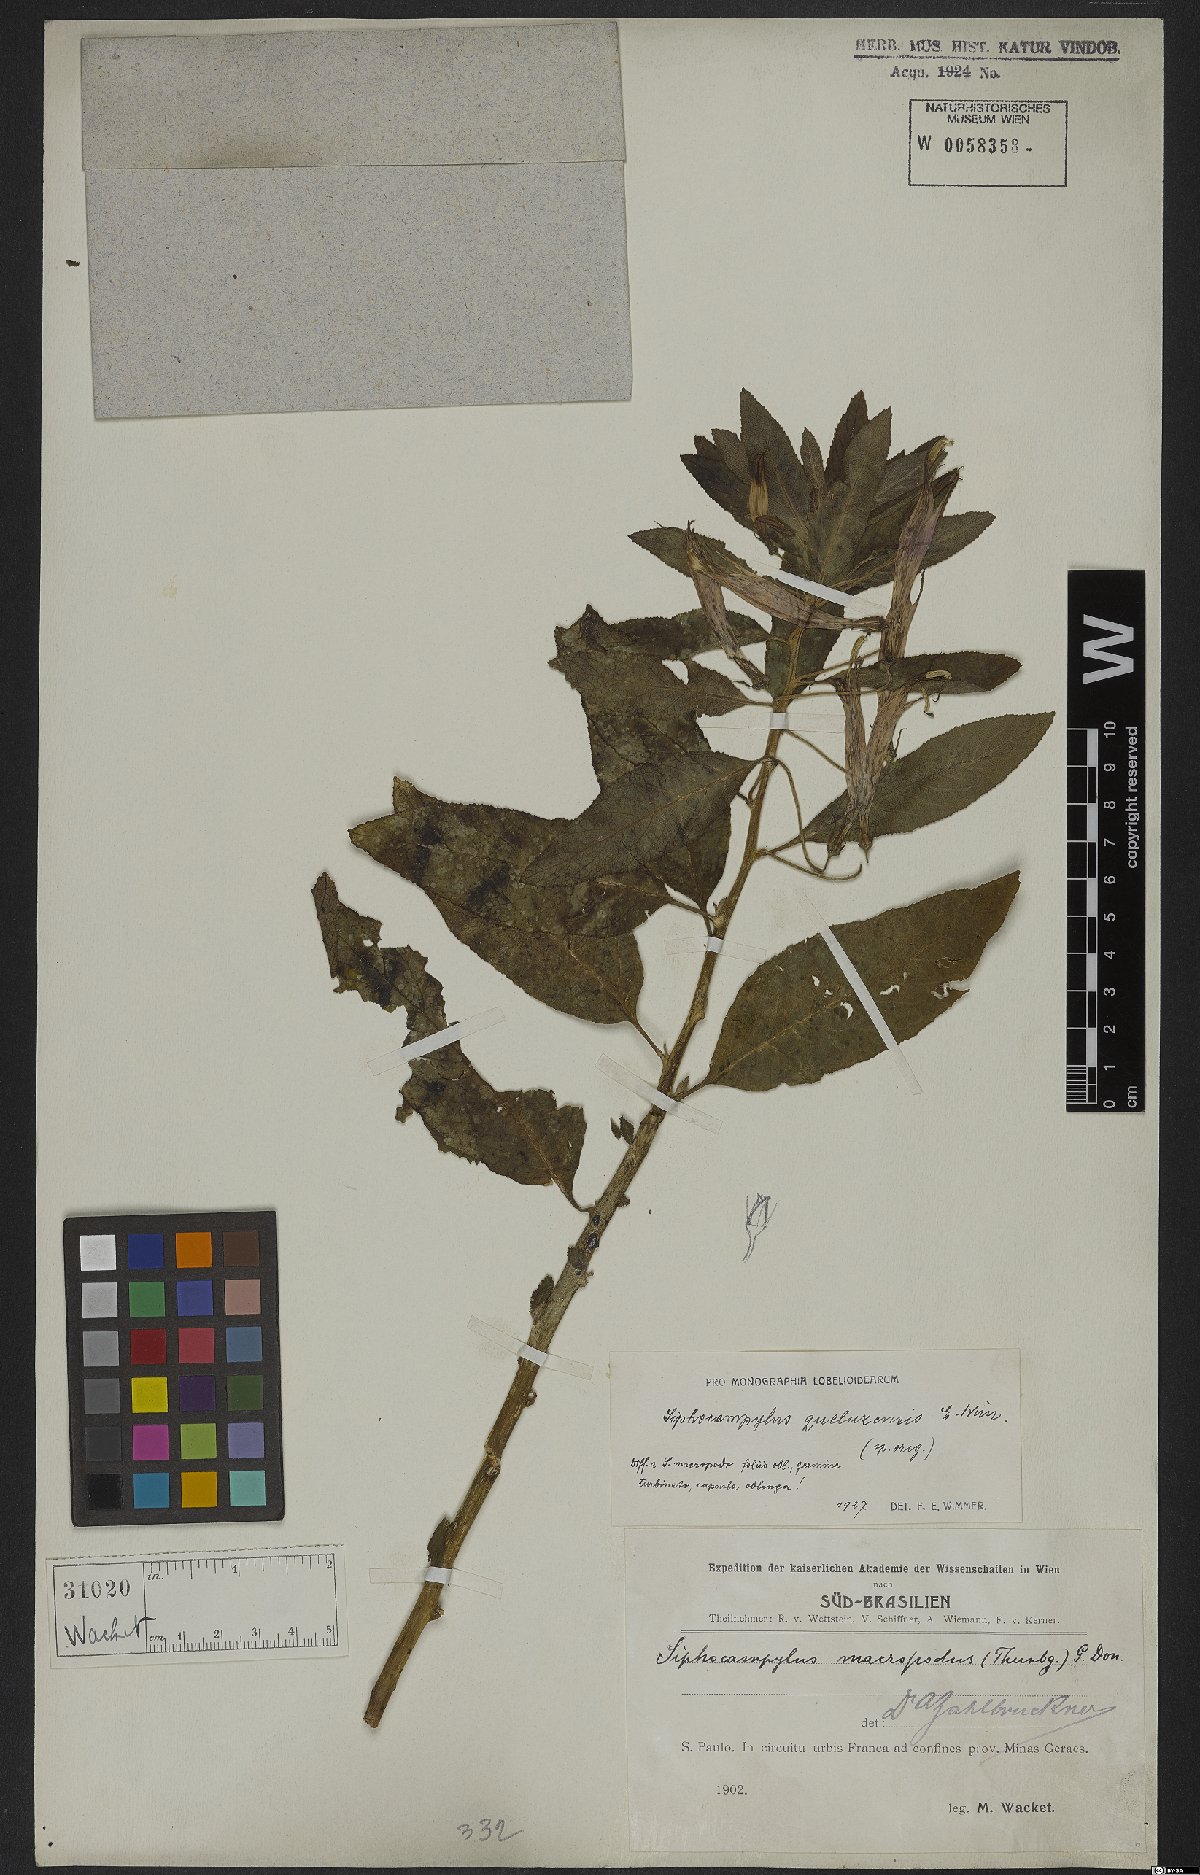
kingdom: Plantae
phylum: Tracheophyta
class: Magnoliopsida
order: Asterales
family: Campanulaceae
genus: Siphocampylus
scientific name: Siphocampylus queluzensis
